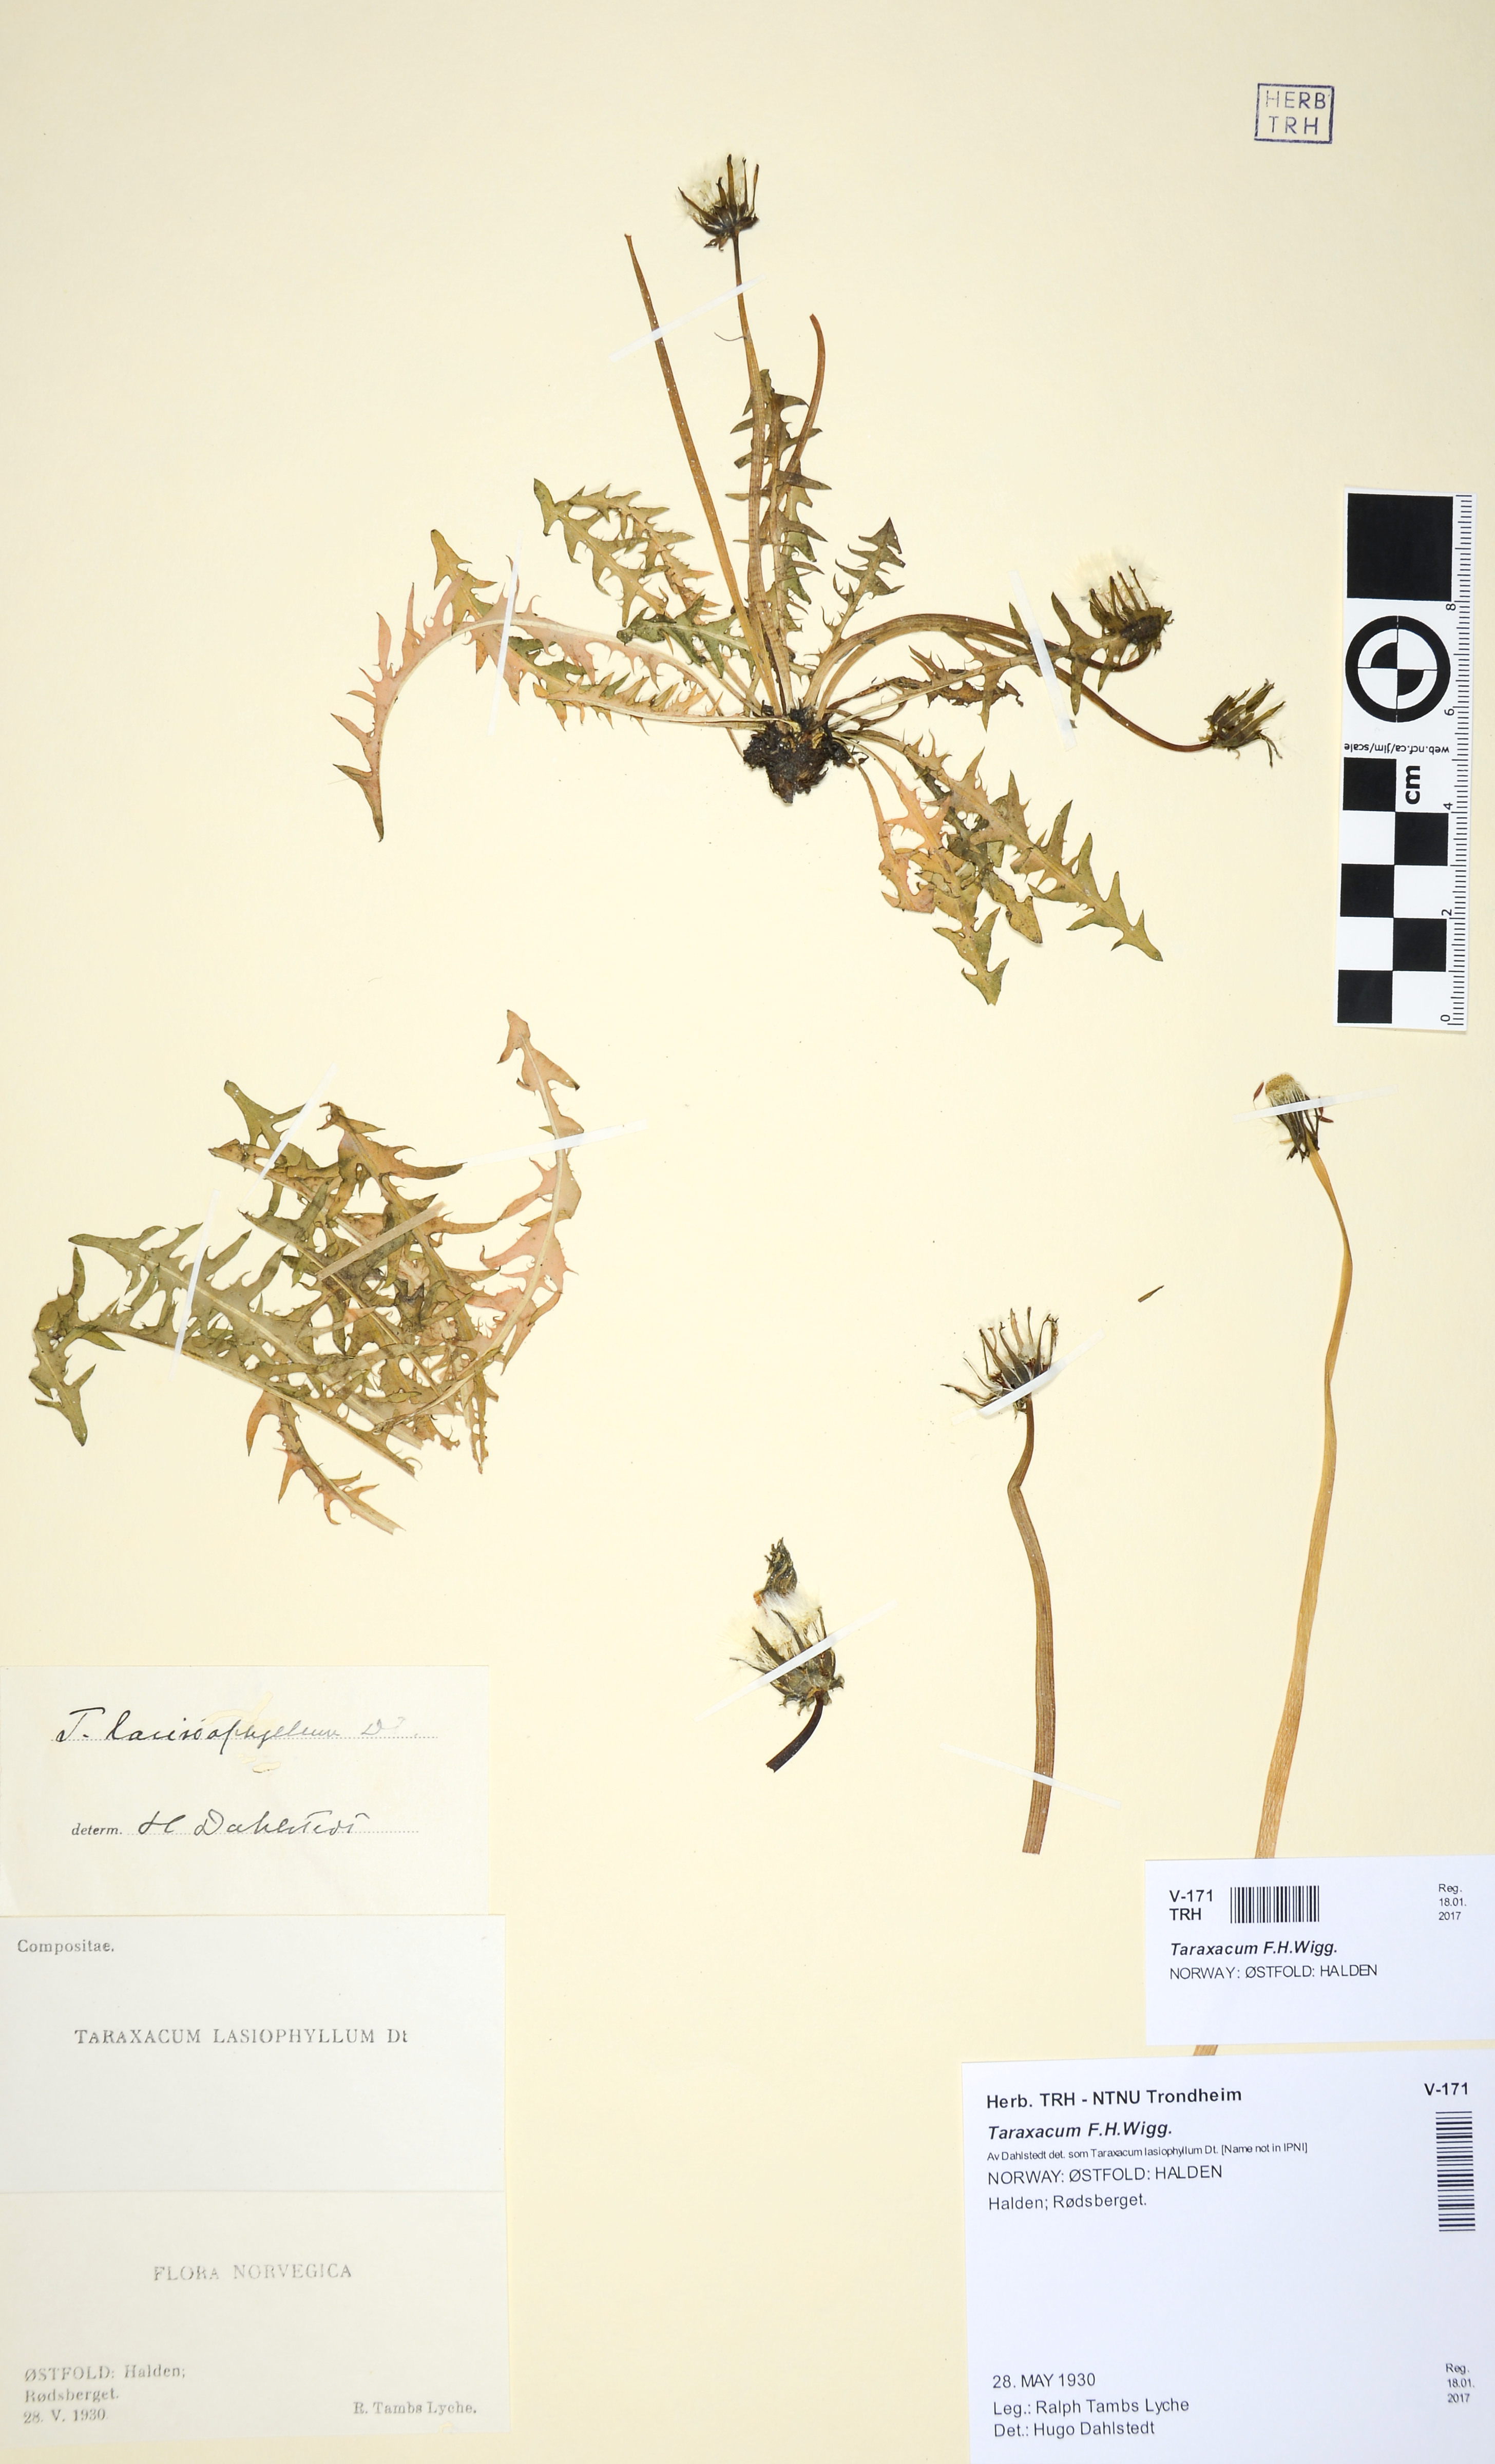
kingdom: Plantae
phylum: Tracheophyta
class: Magnoliopsida
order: Asterales
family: Asteraceae
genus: Taraxacum
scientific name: Taraxacum
